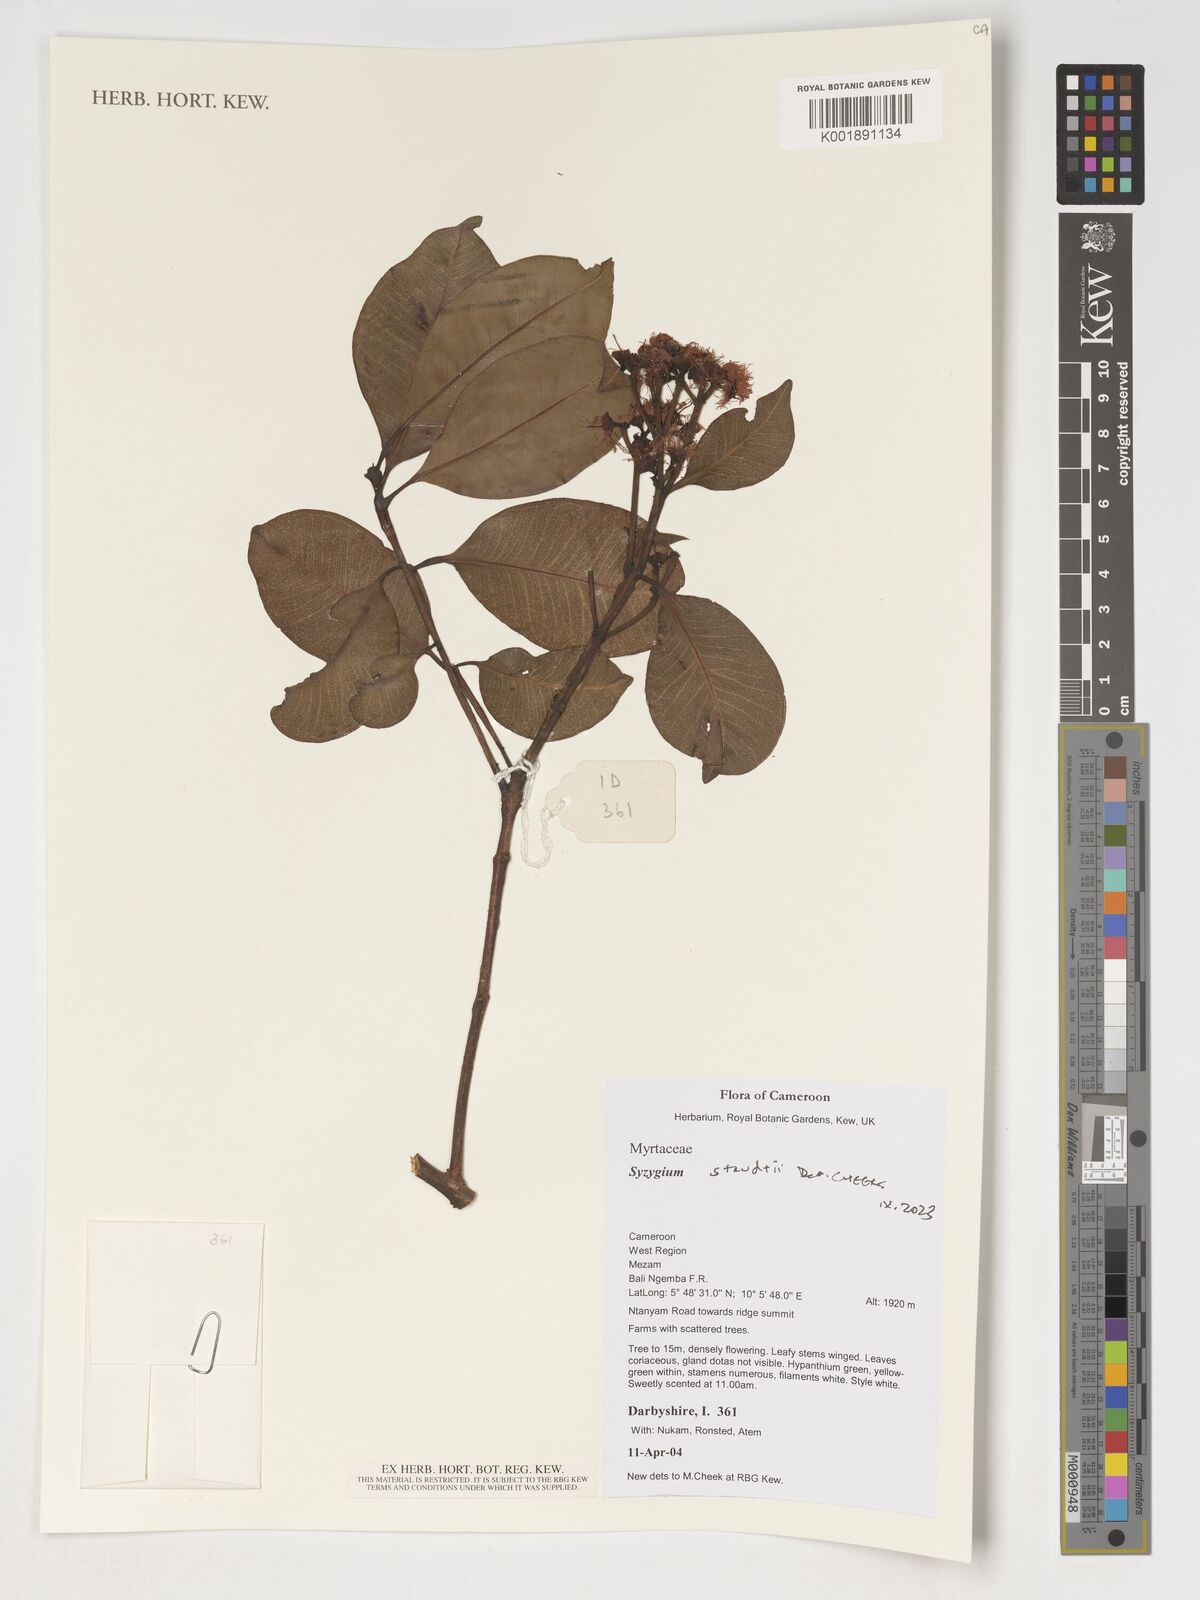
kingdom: Plantae
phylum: Tracheophyta
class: Magnoliopsida
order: Myrtales
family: Myrtaceae
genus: Syzygium
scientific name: Syzygium staudtii
